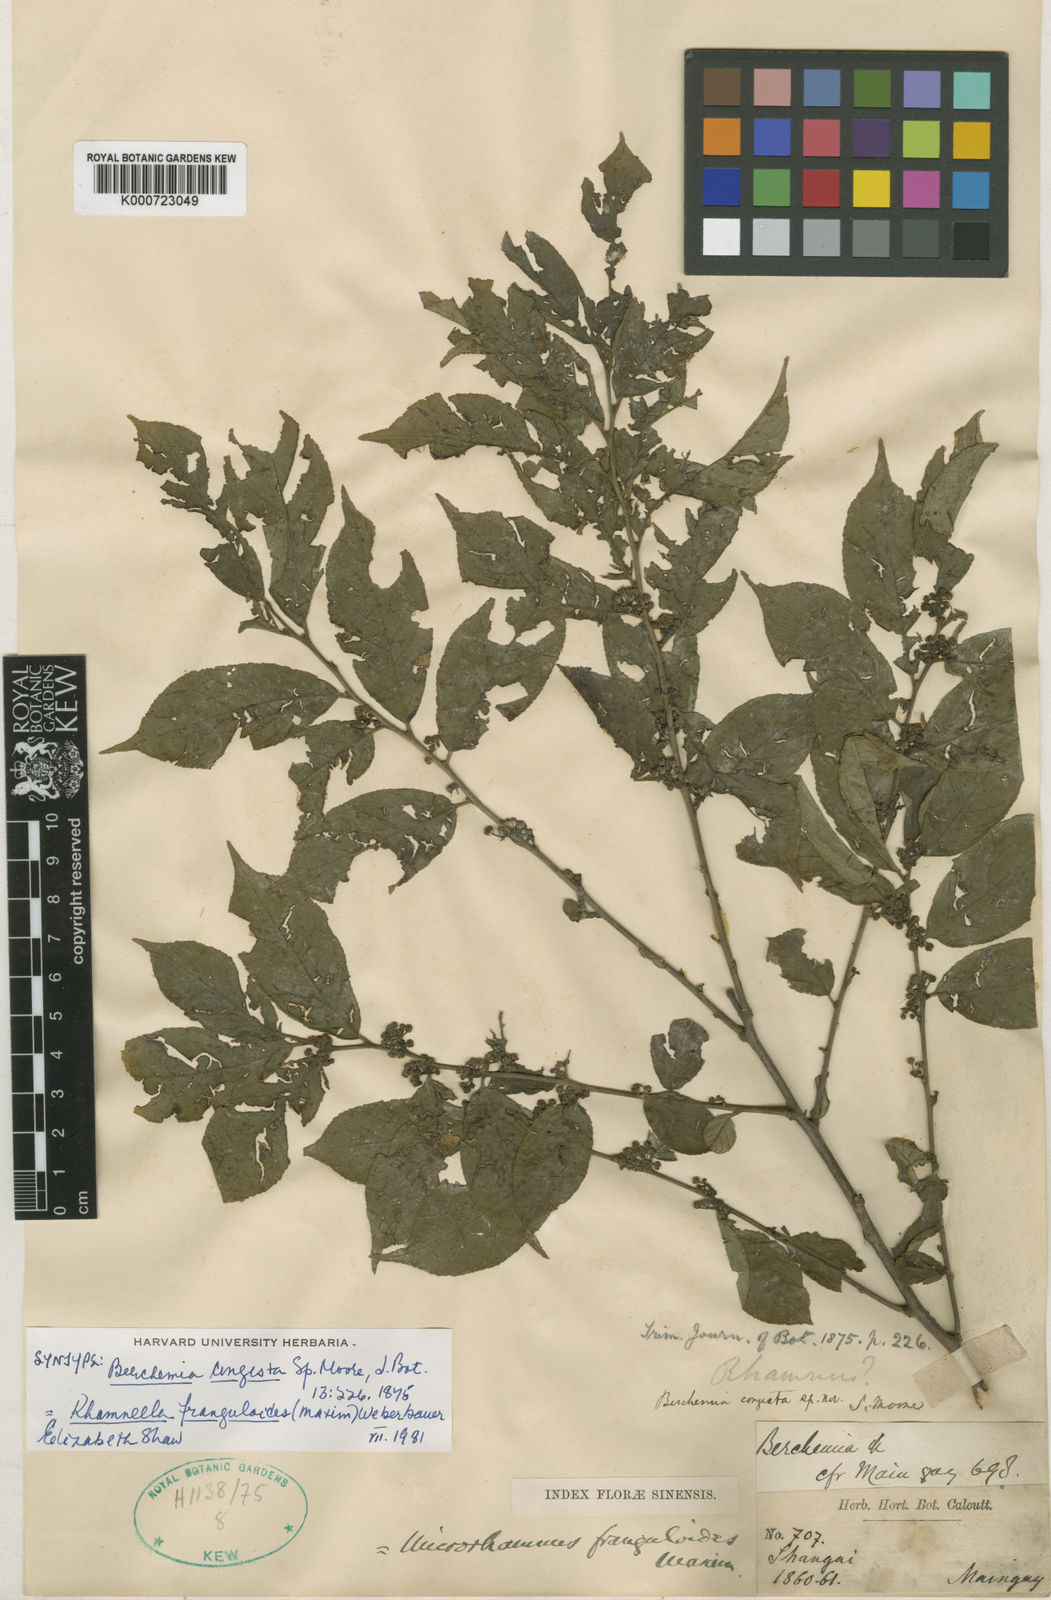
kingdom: Plantae
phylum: Tracheophyta
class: Magnoliopsida
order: Rosales
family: Rhamnaceae
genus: Rhamnella
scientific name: Rhamnella franguloides
